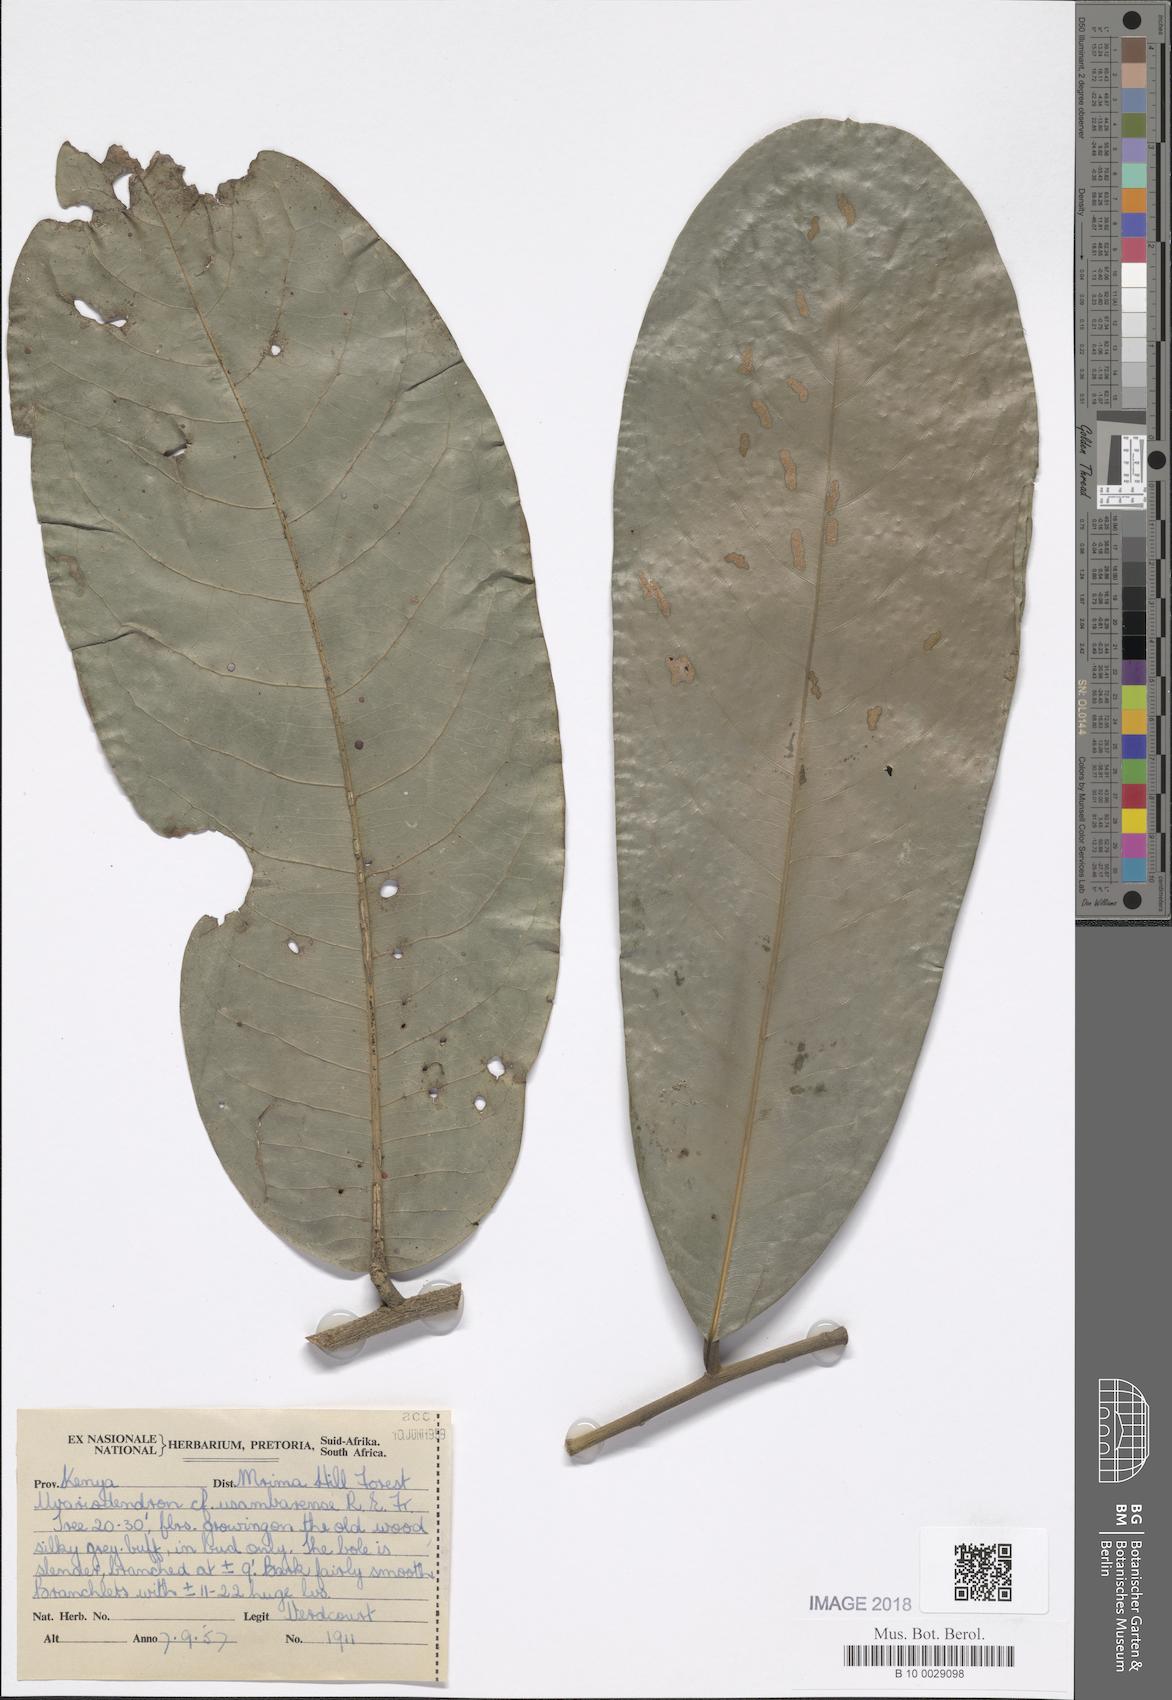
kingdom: Plantae
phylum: Tracheophyta
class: Magnoliopsida
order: Magnoliales
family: Annonaceae
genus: Uvariodendron
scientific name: Uvariodendron gorgonis
